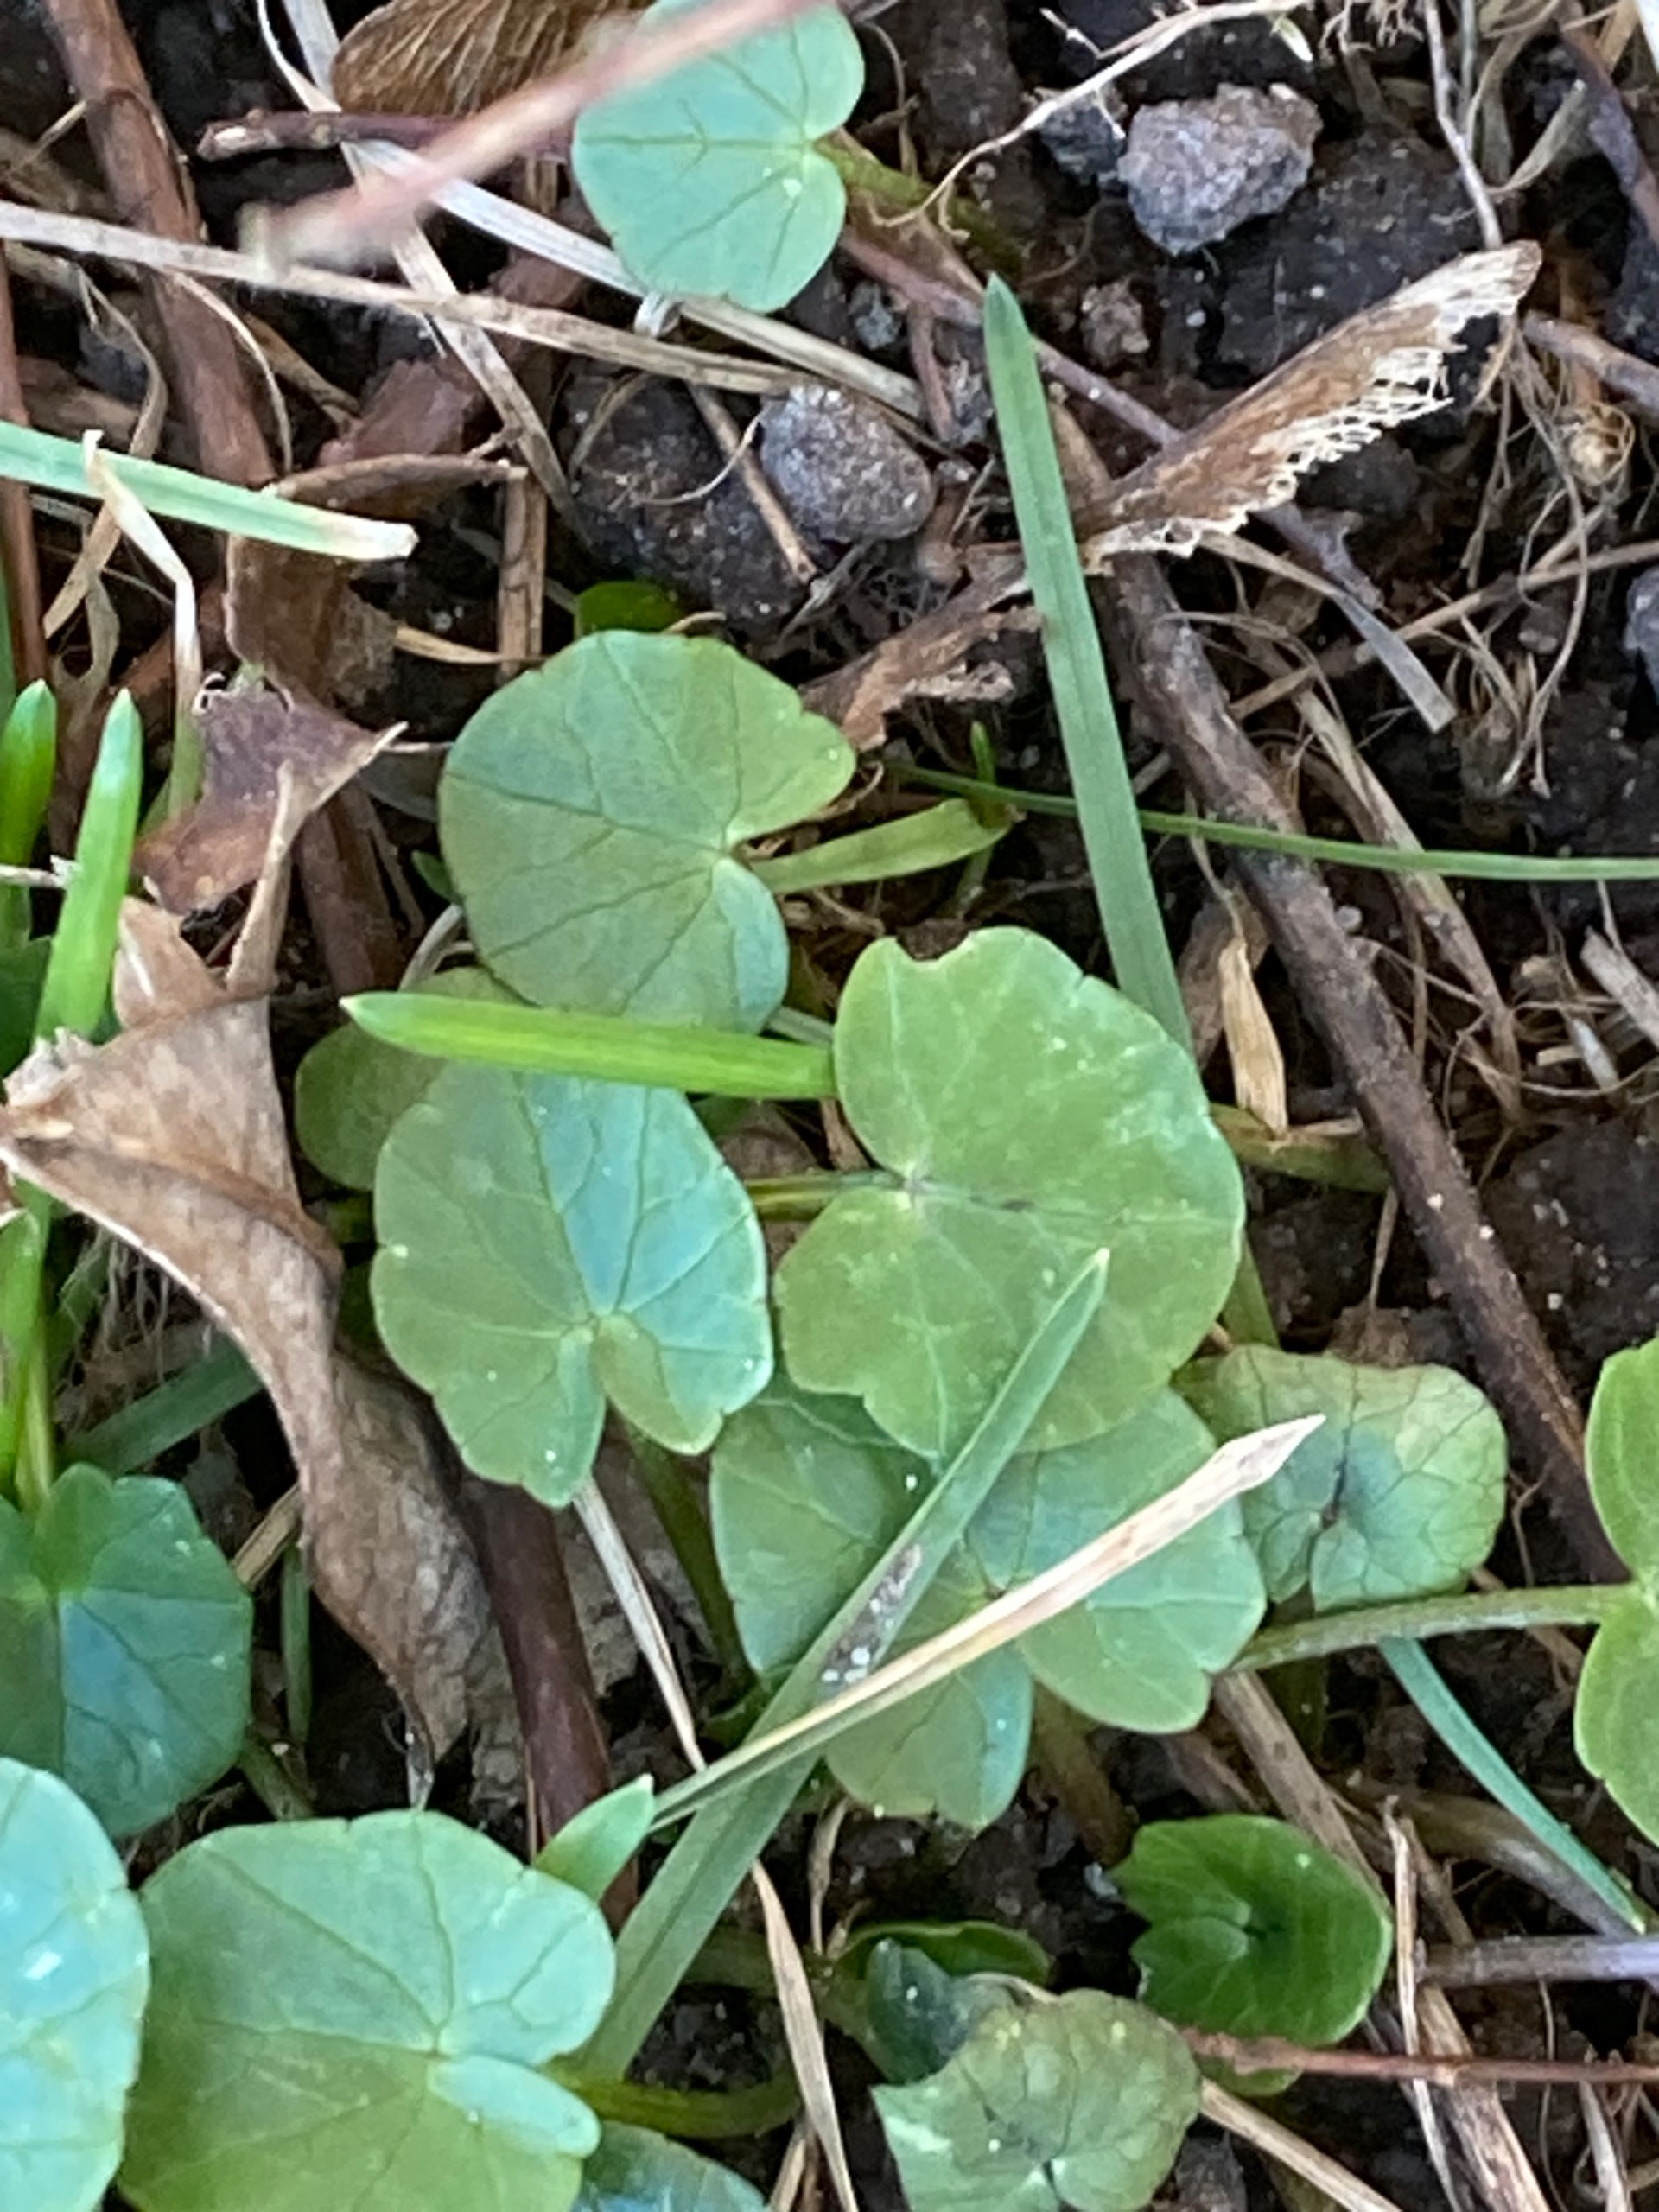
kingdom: Plantae
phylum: Tracheophyta
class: Magnoliopsida
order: Ranunculales
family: Ranunculaceae
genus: Ficaria
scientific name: Ficaria verna
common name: Vorterod
